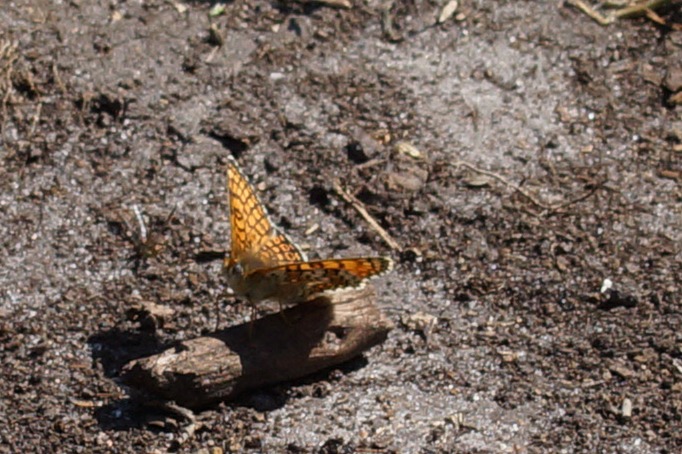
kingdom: Animalia
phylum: Arthropoda
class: Insecta
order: Lepidoptera
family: Nymphalidae
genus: Melitaea
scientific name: Melitaea cinxia
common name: Okkergul pletvinge
